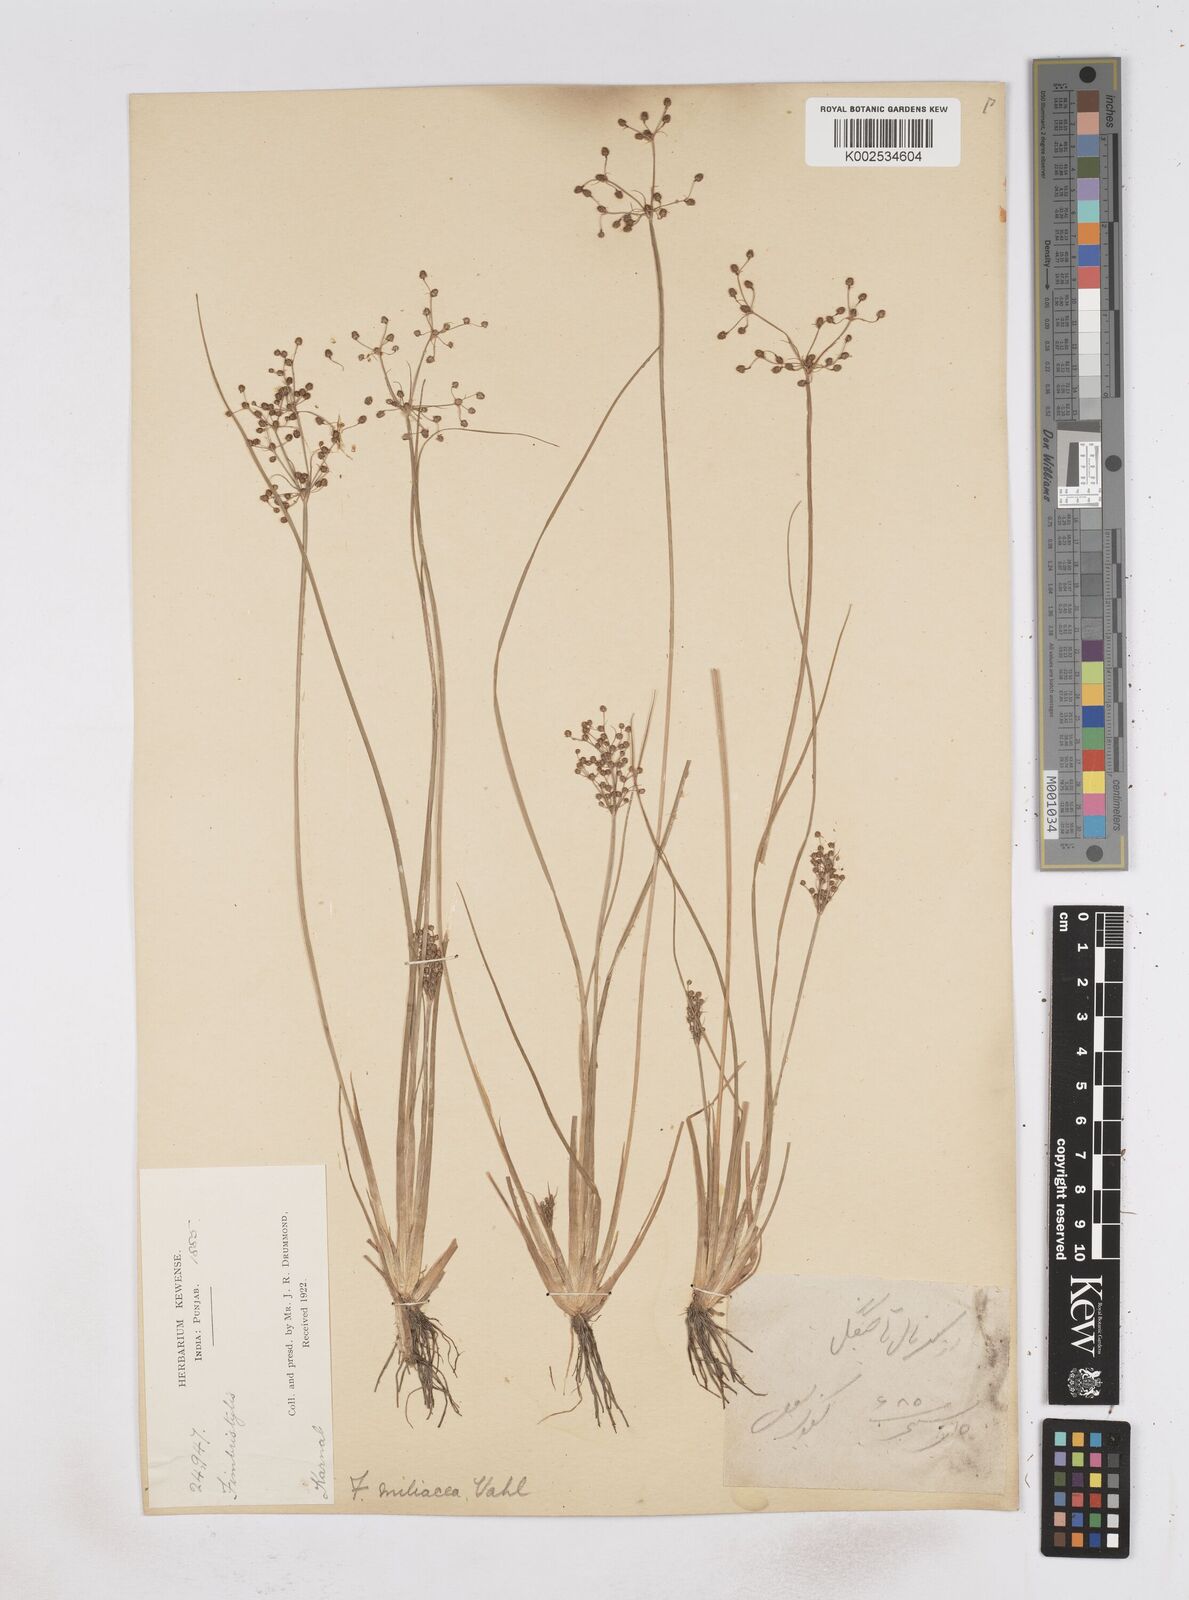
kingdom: Plantae
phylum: Tracheophyta
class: Liliopsida
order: Poales
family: Cyperaceae
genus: Fimbristylis
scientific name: Fimbristylis littoralis
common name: Fimbry
